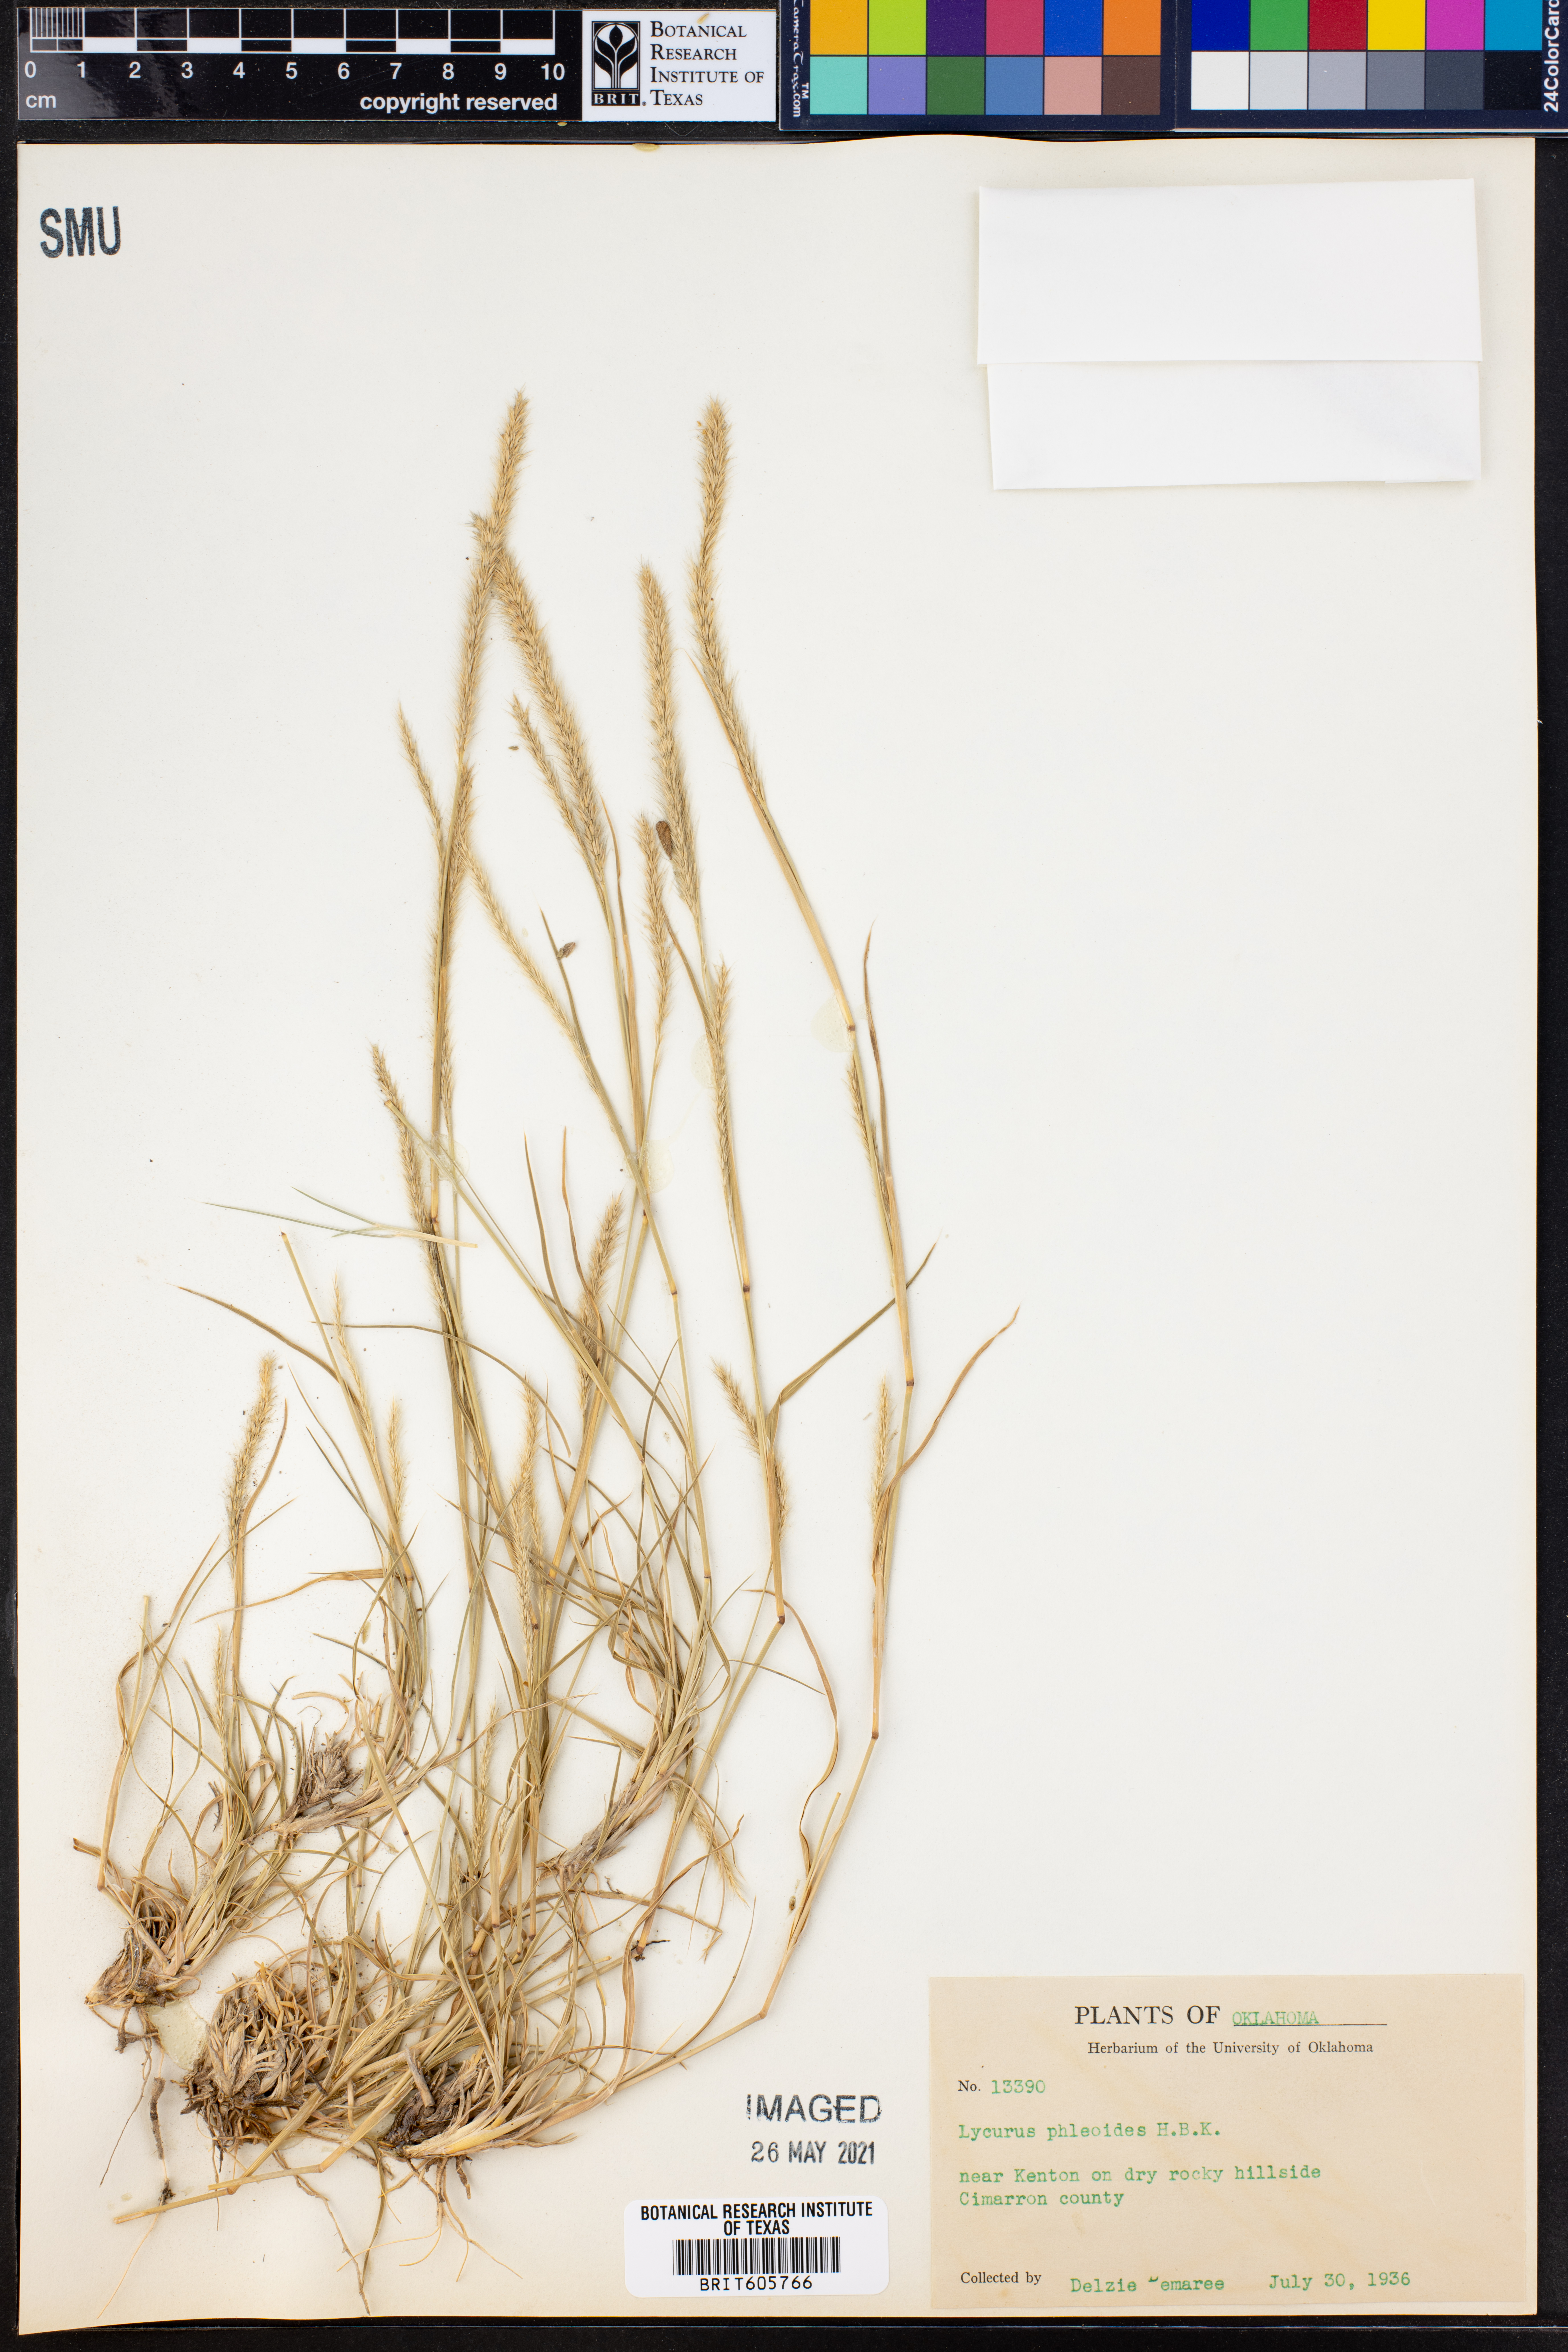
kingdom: Plantae
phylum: Tracheophyta
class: Liliopsida
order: Poales
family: Poaceae
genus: Muhlenbergia
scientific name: Muhlenbergia phleoides
